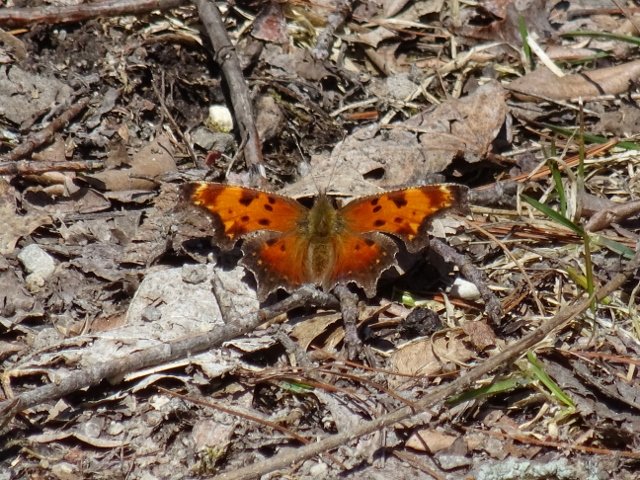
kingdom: Animalia
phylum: Arthropoda
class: Insecta
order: Lepidoptera
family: Nymphalidae
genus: Polygonia
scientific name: Polygonia progne
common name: Gray Comma
